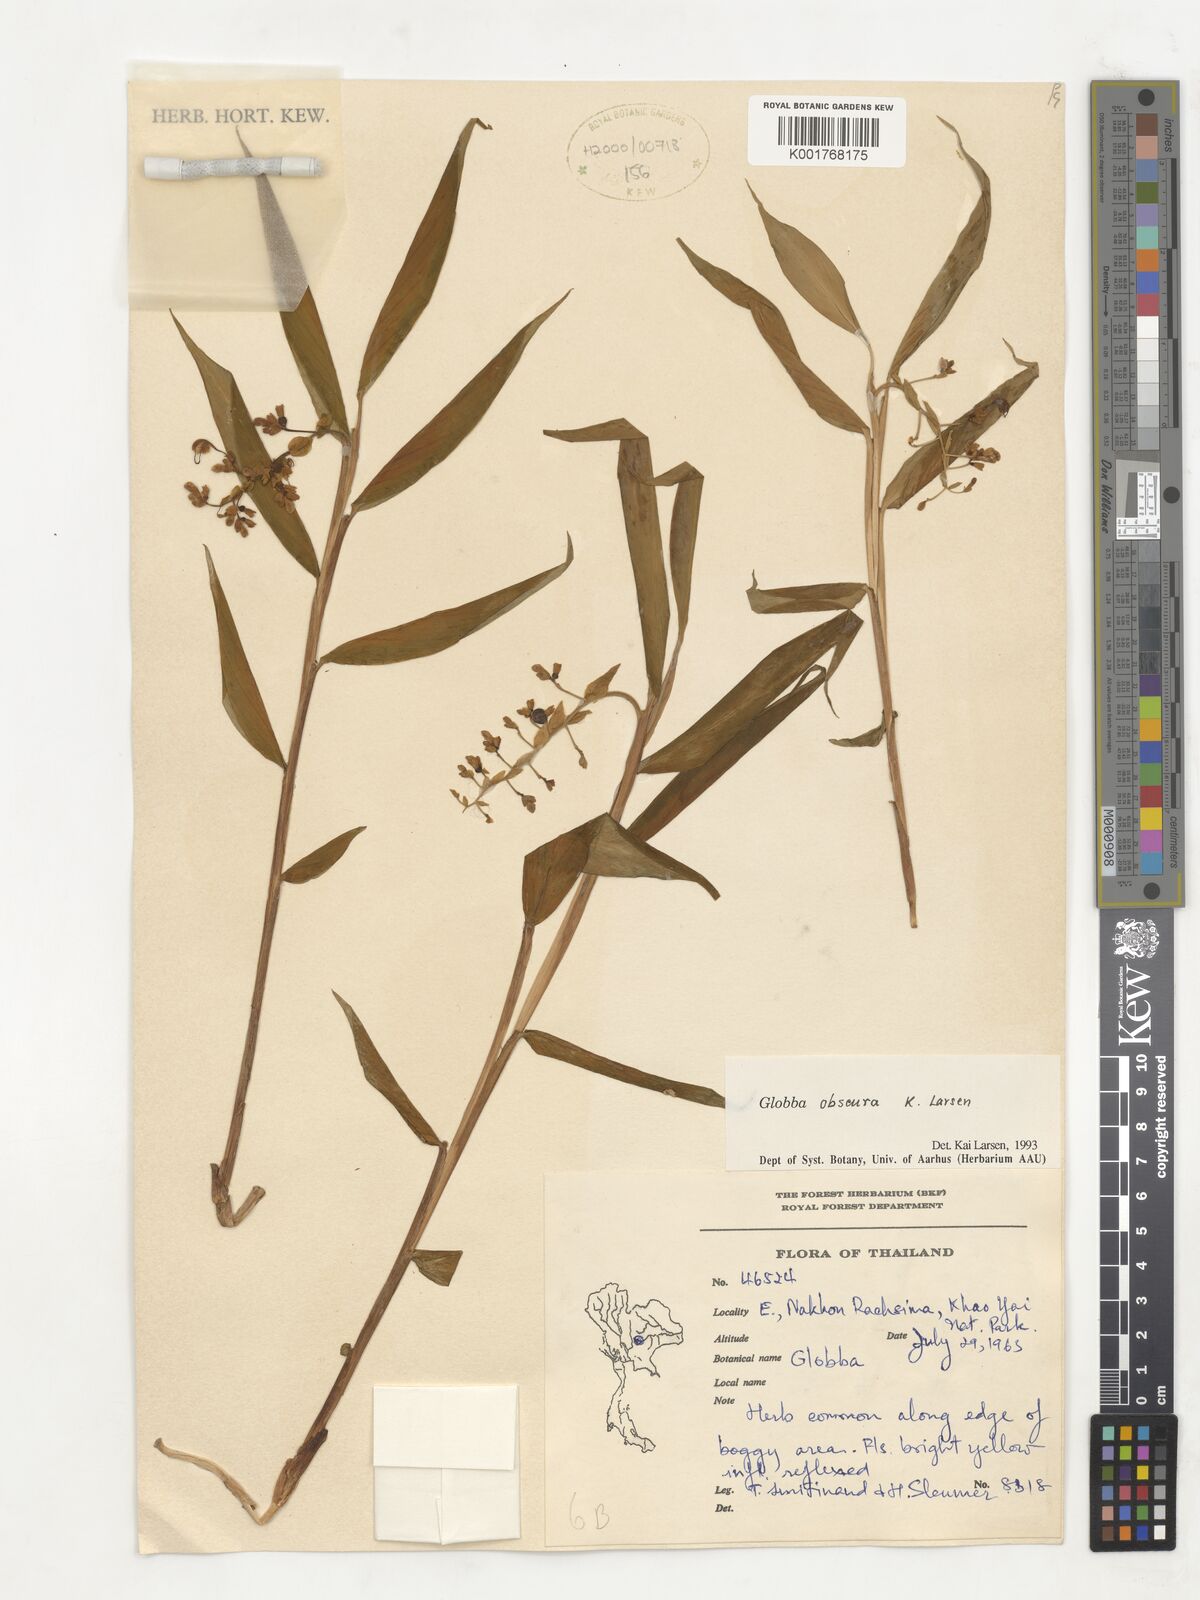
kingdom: Plantae
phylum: Tracheophyta
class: Liliopsida
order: Zingiberales
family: Zingiberaceae
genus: Globba
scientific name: Globba obscura
